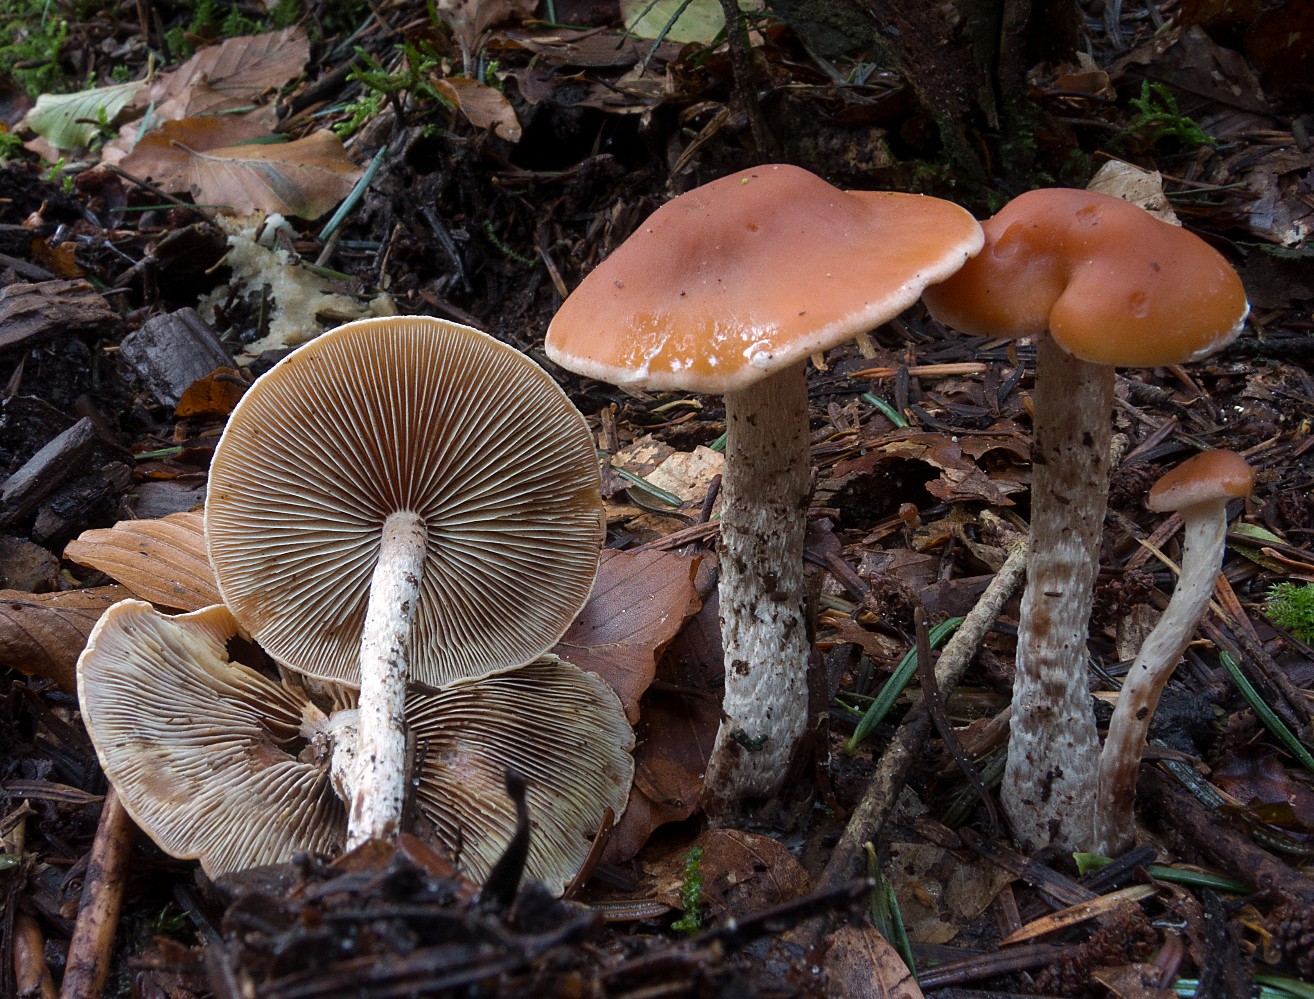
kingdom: Fungi
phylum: Basidiomycota
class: Agaricomycetes
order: Agaricales
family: Strophariaceae
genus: Hypholoma
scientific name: Hypholoma marginatum
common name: enlig svovlhat
